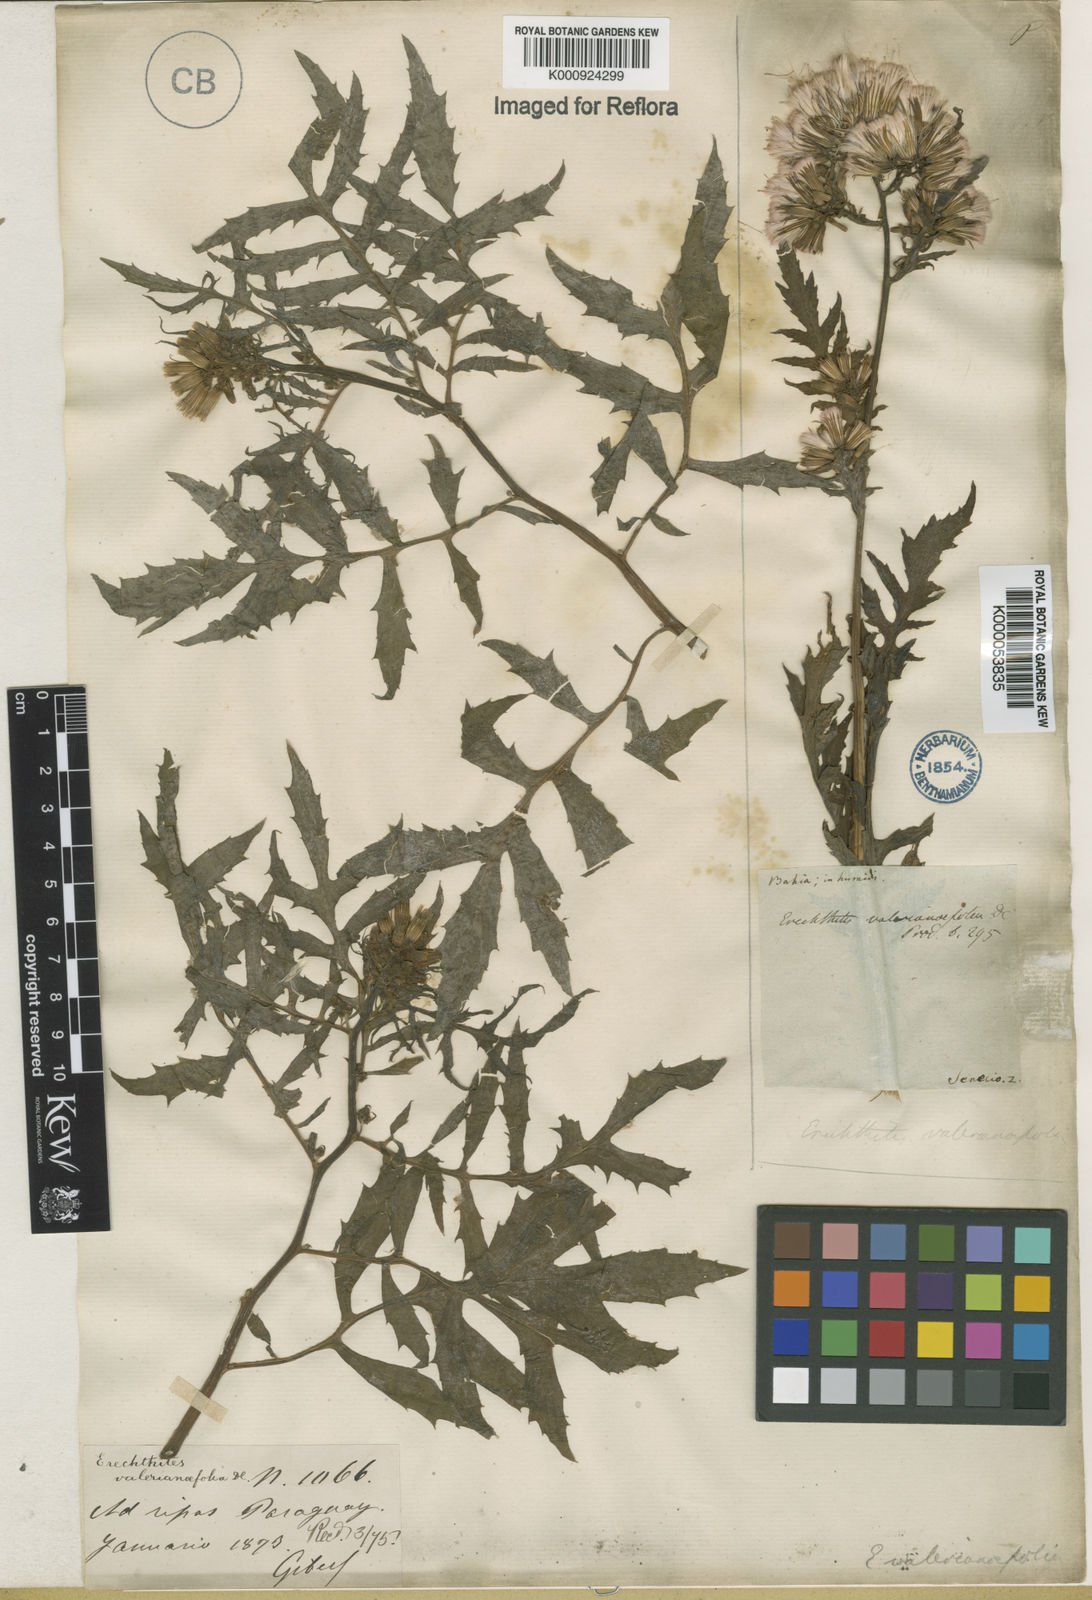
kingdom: Plantae
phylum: Tracheophyta
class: Magnoliopsida
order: Asterales
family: Asteraceae
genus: Erechtites
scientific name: Erechtites valerianifolius
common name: Tropical burnweed
